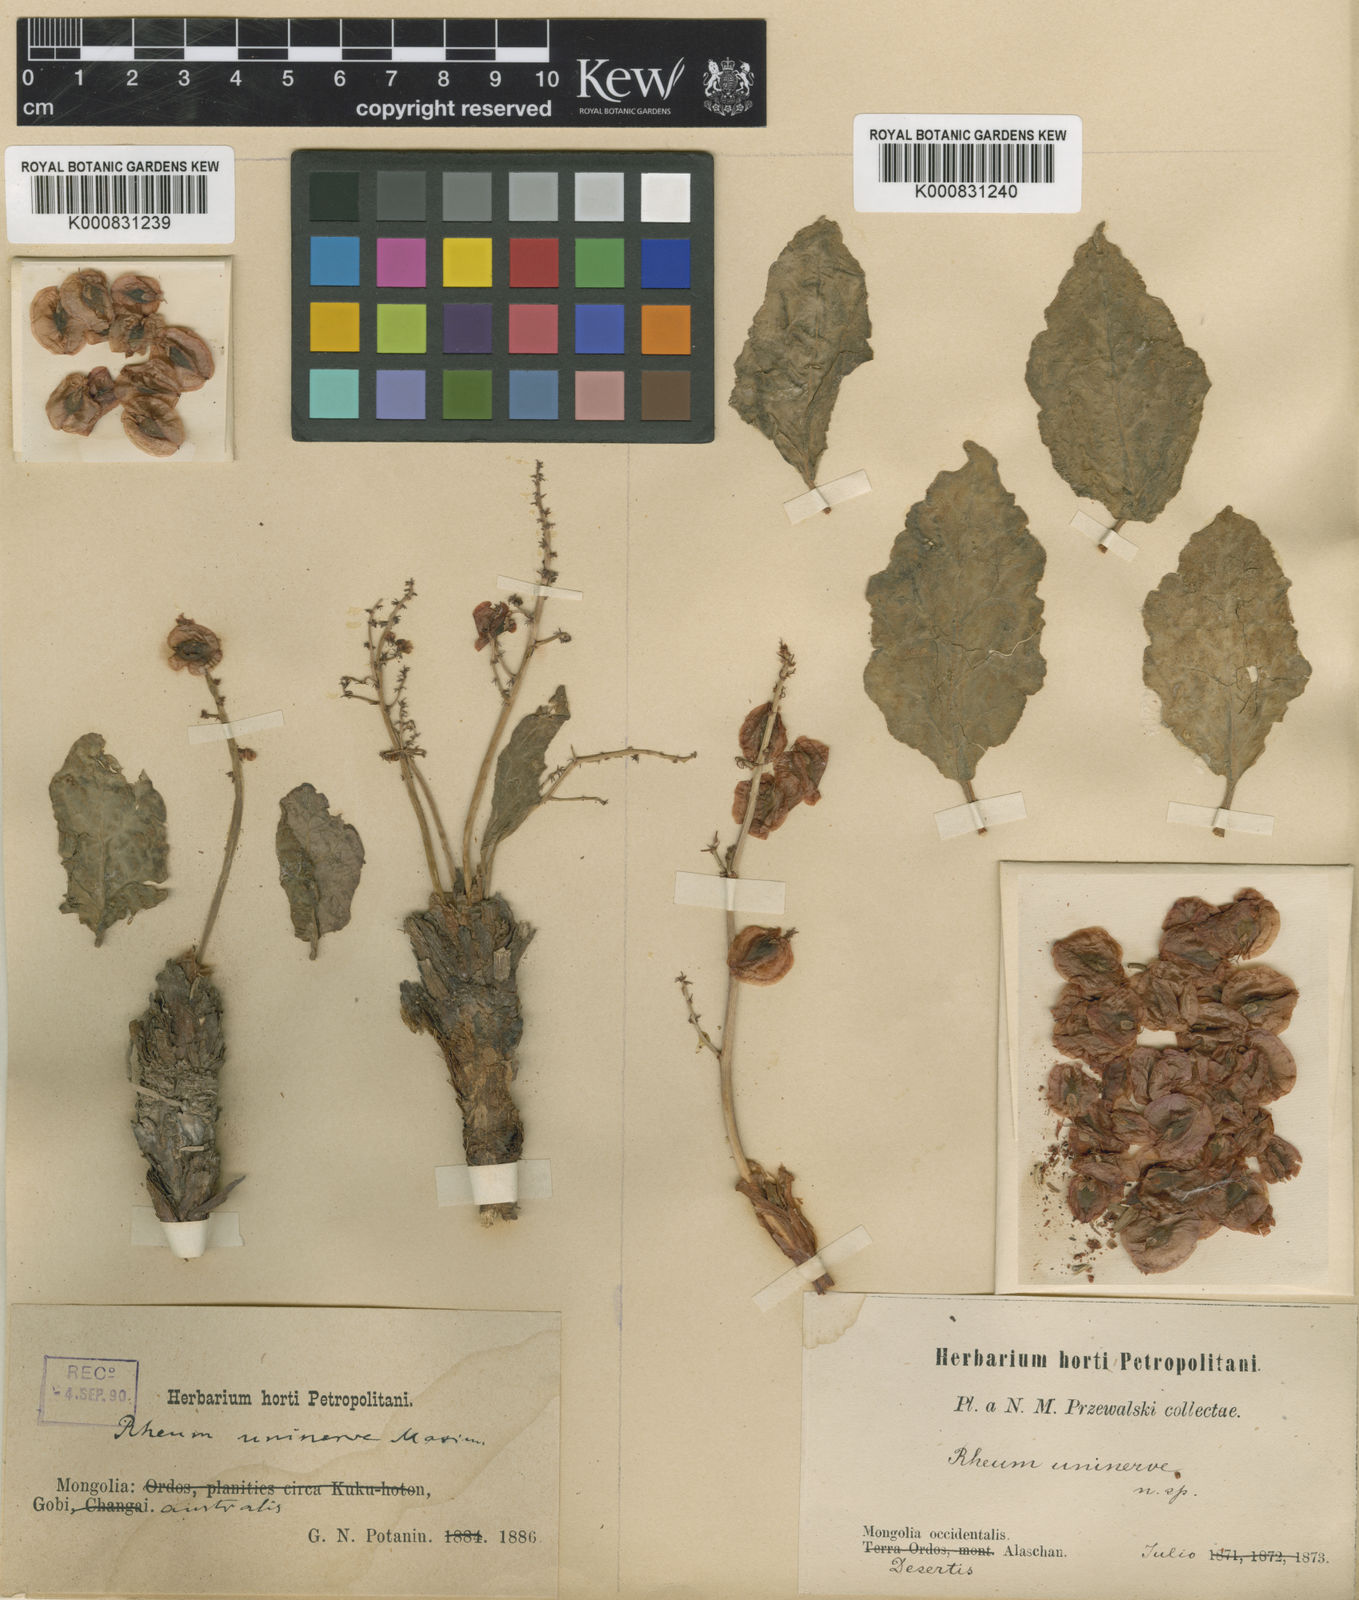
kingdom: Plantae
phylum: Tracheophyta
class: Magnoliopsida
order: Caryophyllales
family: Polygonaceae
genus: Rheum
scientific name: Rheum uninerve
